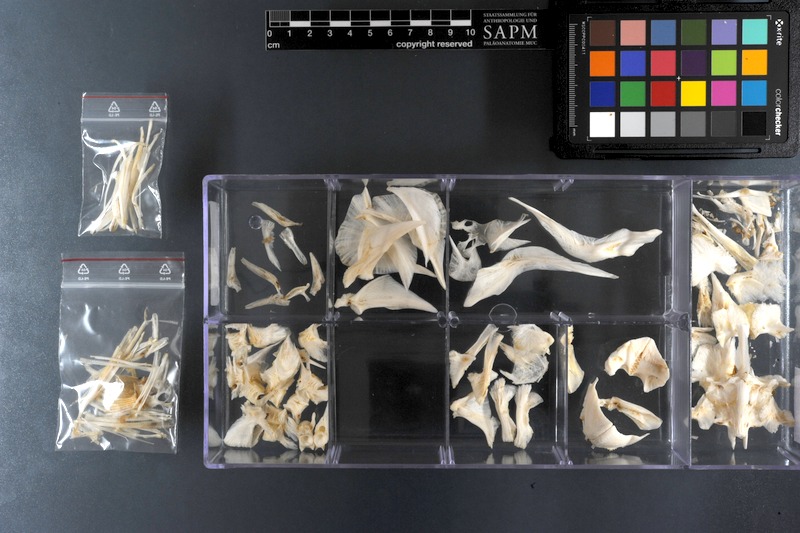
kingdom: Animalia
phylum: Chordata
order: Tetraodontiformes
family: Tetraodontidae
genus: Arothron
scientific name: Arothron stellatus
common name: Star blaasop
